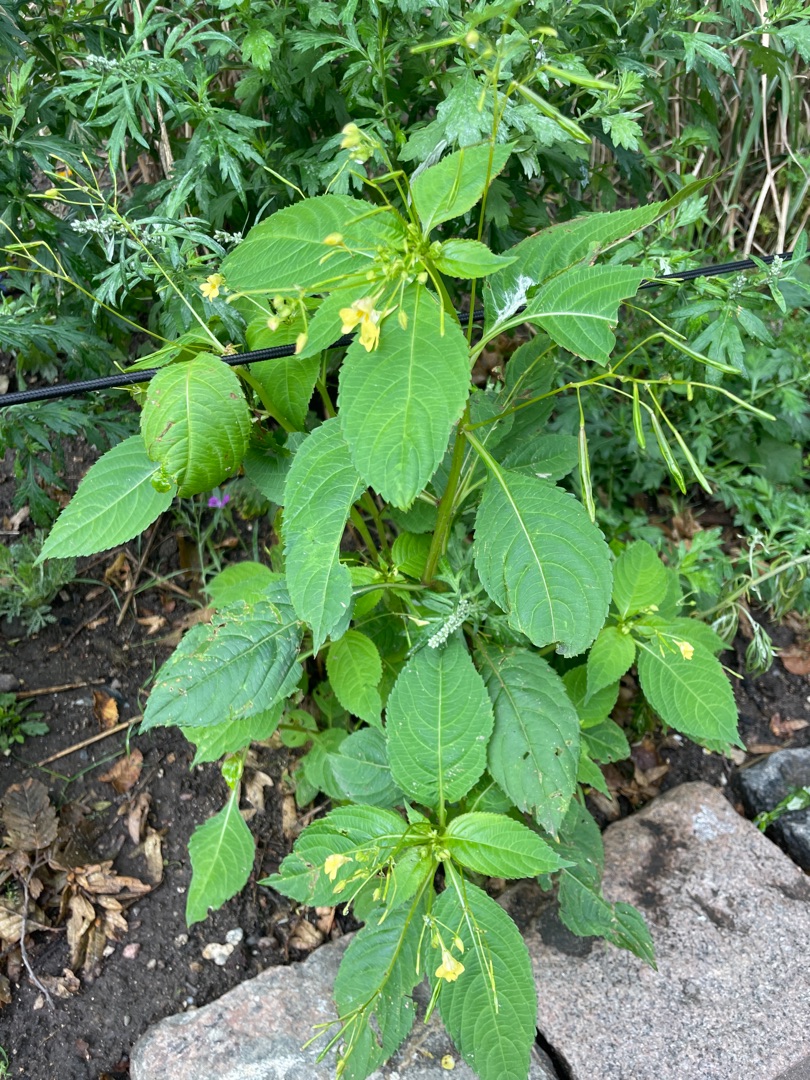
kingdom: Plantae
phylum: Tracheophyta
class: Magnoliopsida
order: Ericales
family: Balsaminaceae
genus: Impatiens
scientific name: Impatiens parviflora
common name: Småblomstret balsamin
